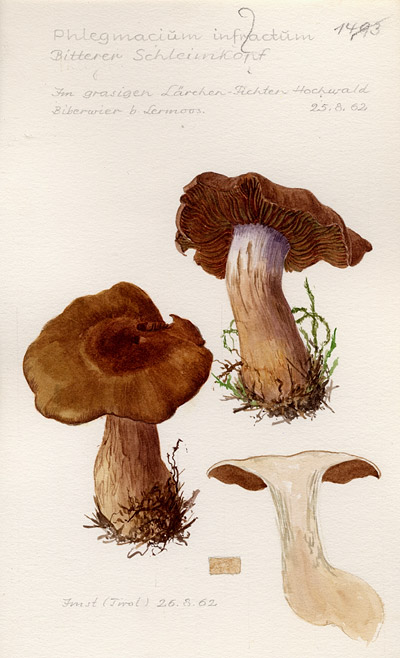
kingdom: Fungi
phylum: Basidiomycota
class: Agaricomycetes
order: Agaricales
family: Cortinariaceae
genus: Cortinarius
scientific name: Cortinarius infractus
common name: Bitter webcap
